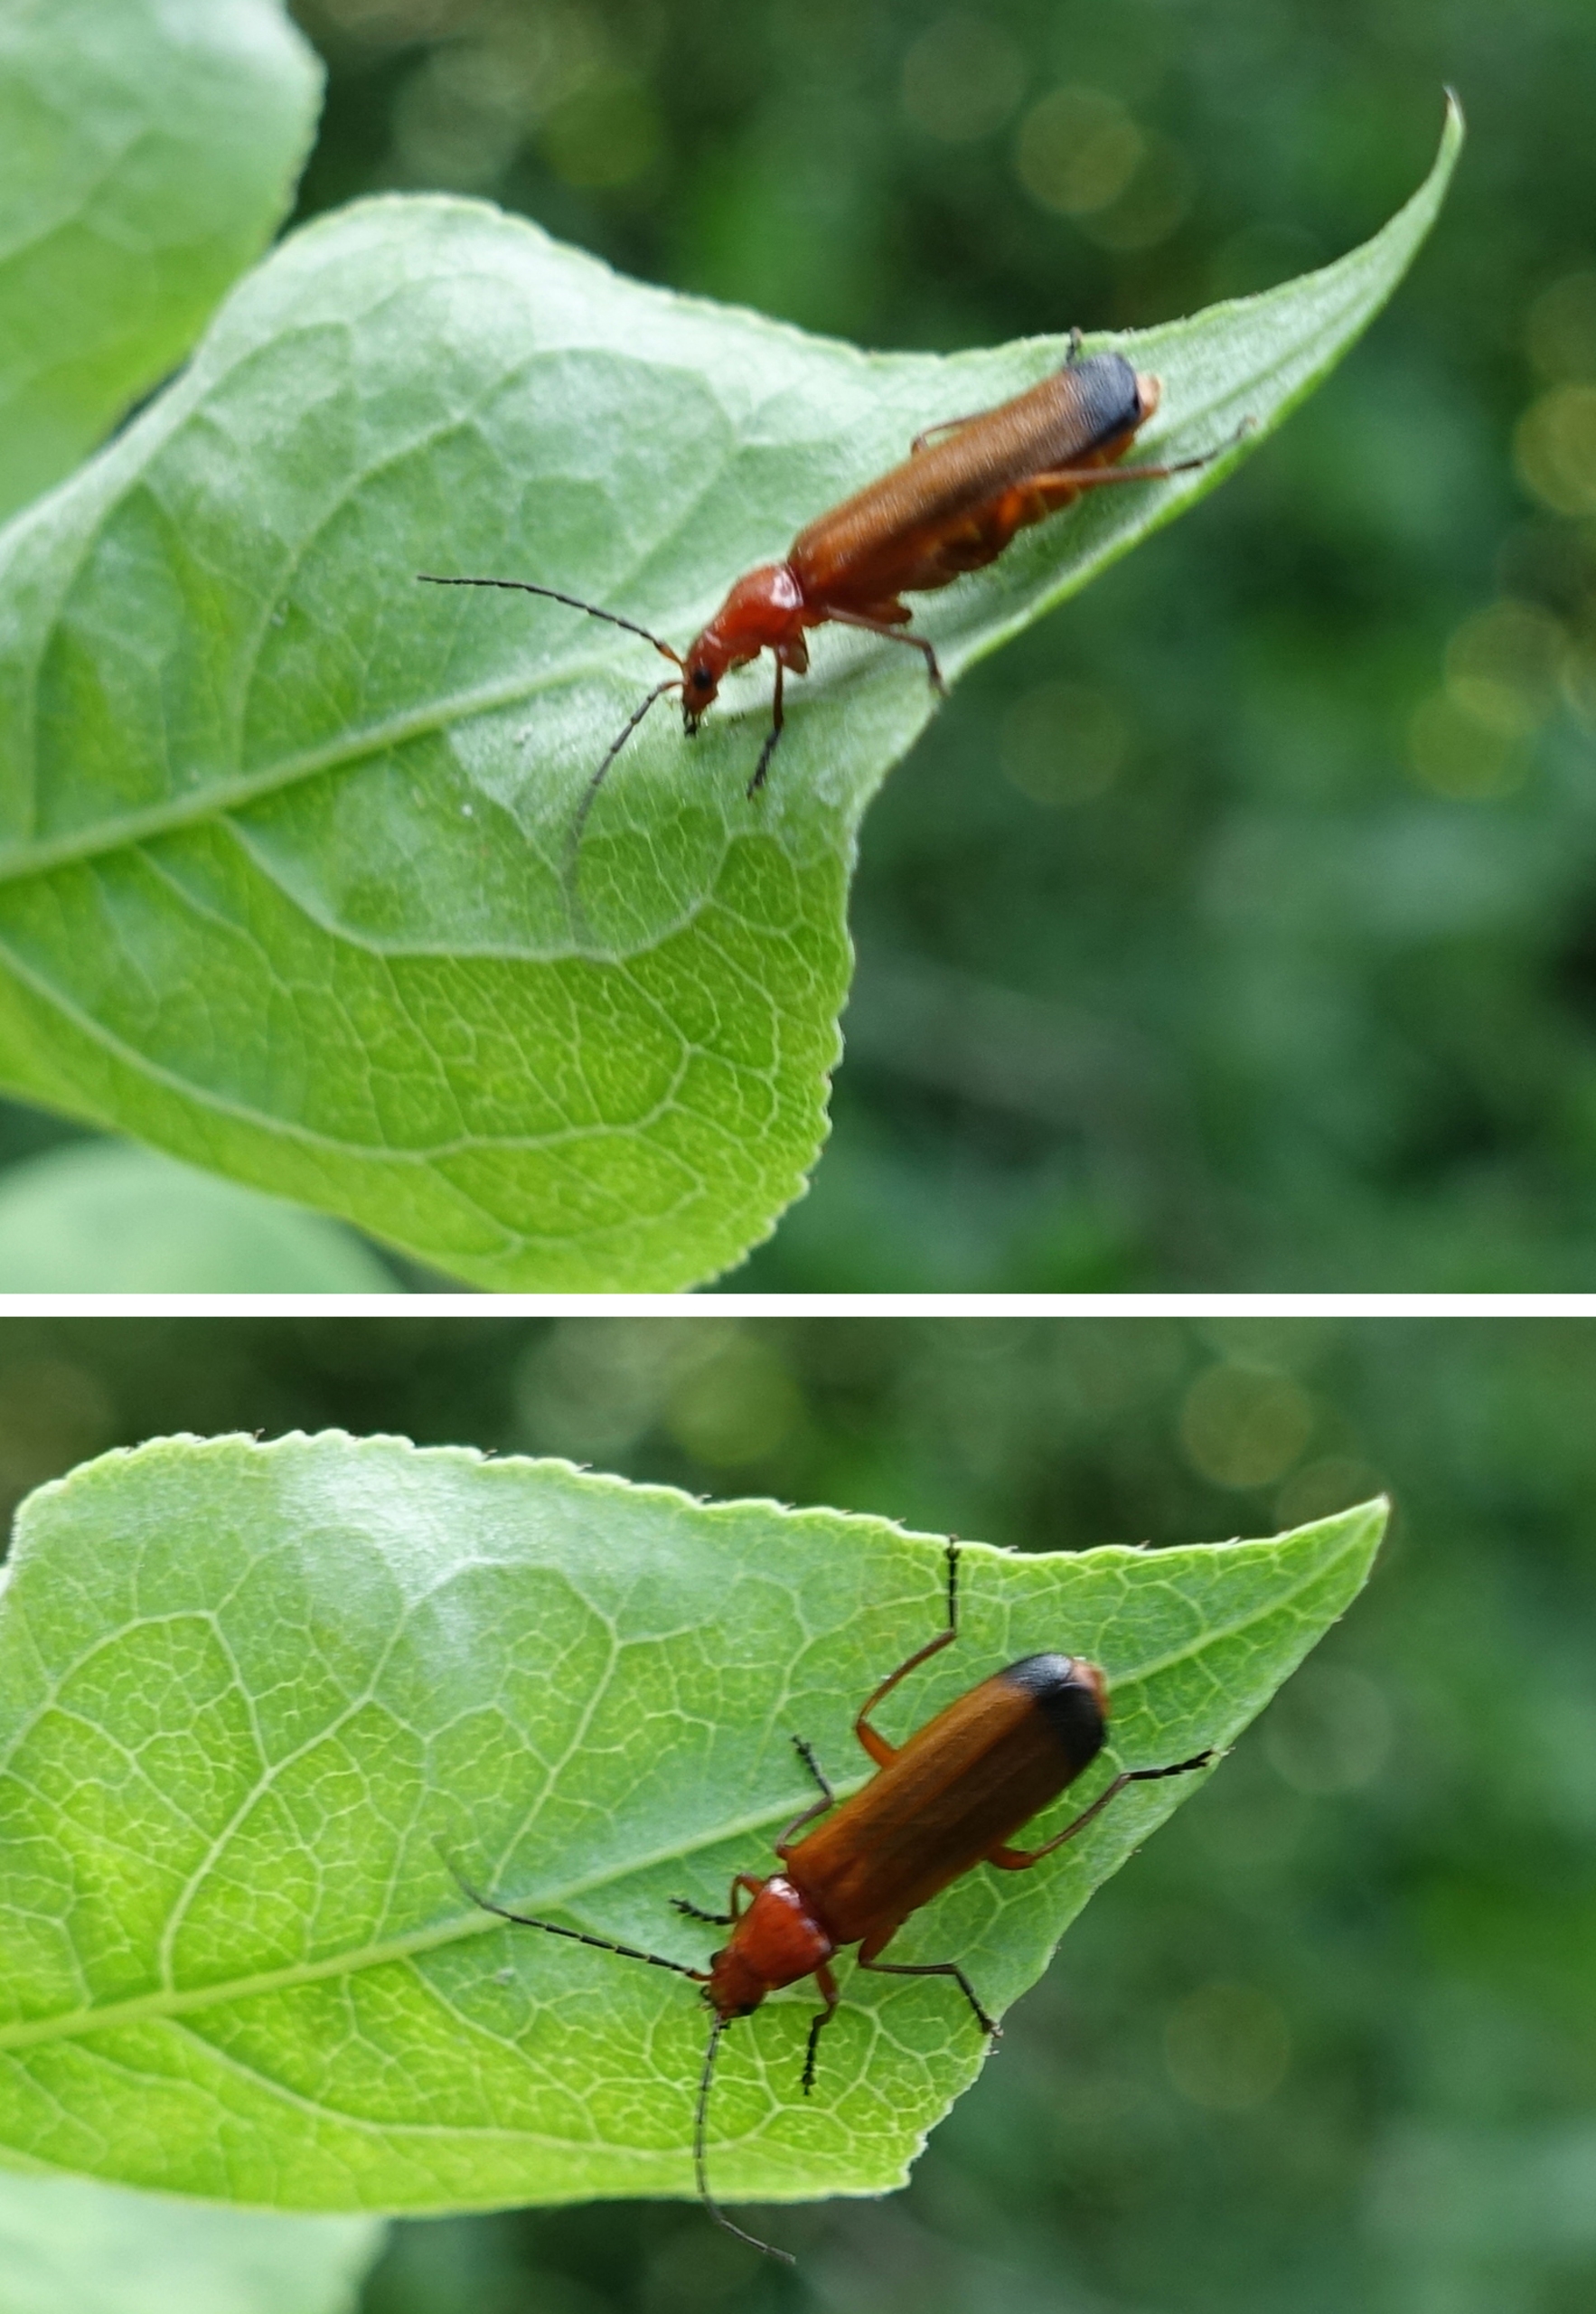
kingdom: Animalia
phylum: Arthropoda
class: Insecta
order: Coleoptera
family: Cantharidae
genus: Rhagonycha
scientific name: Rhagonycha fulva
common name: Præstebille
